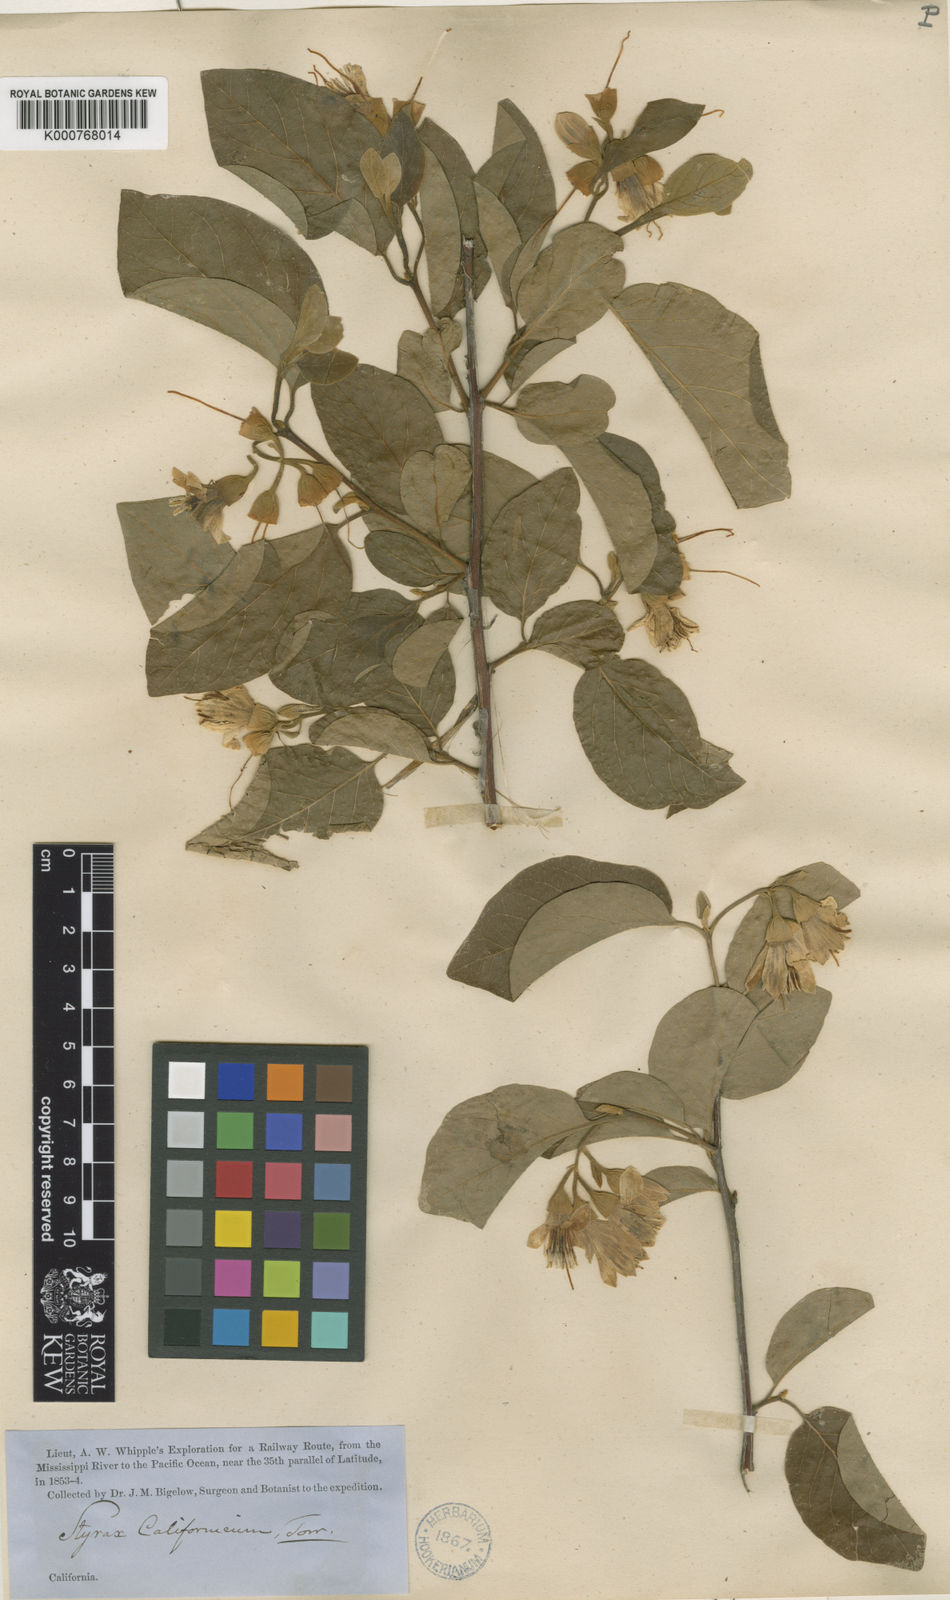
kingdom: Plantae
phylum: Tracheophyta
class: Magnoliopsida
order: Ericales
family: Styracaceae
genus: Styrax
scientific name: Styrax officinalis
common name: Storax
